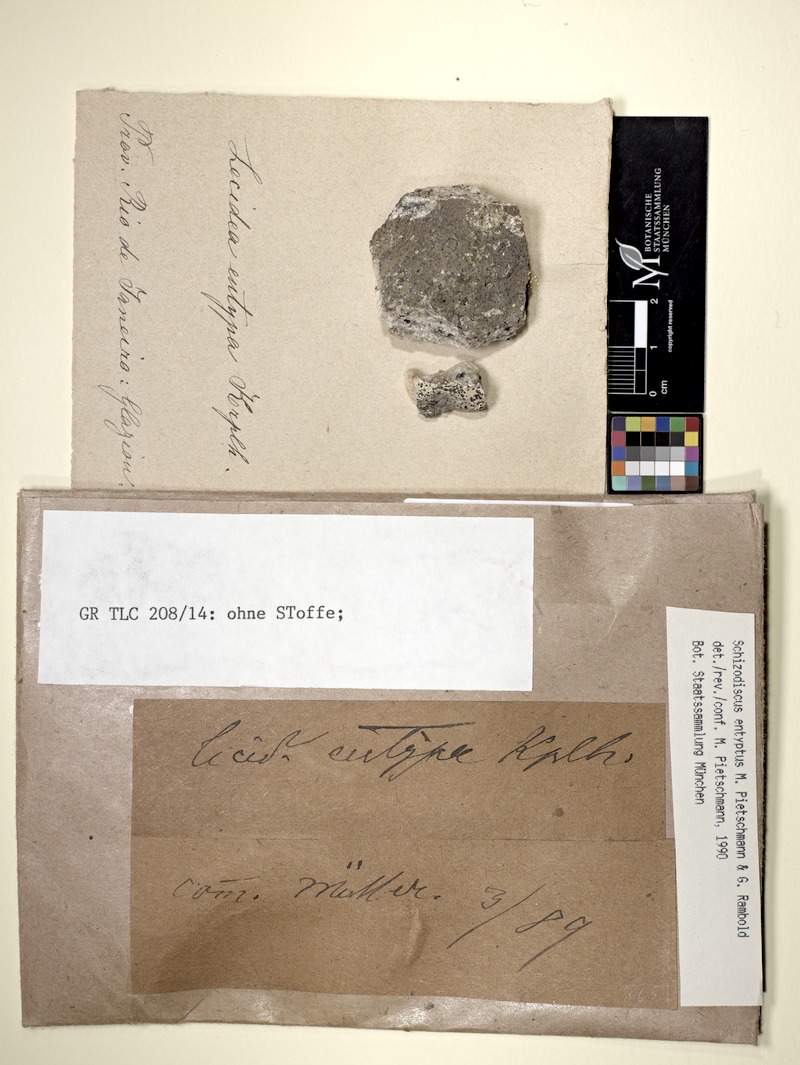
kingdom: Fungi
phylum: Ascomycota
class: Lecanoromycetes
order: Lecideales
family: Lecideaceae
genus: Lecidea
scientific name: Lecidea
